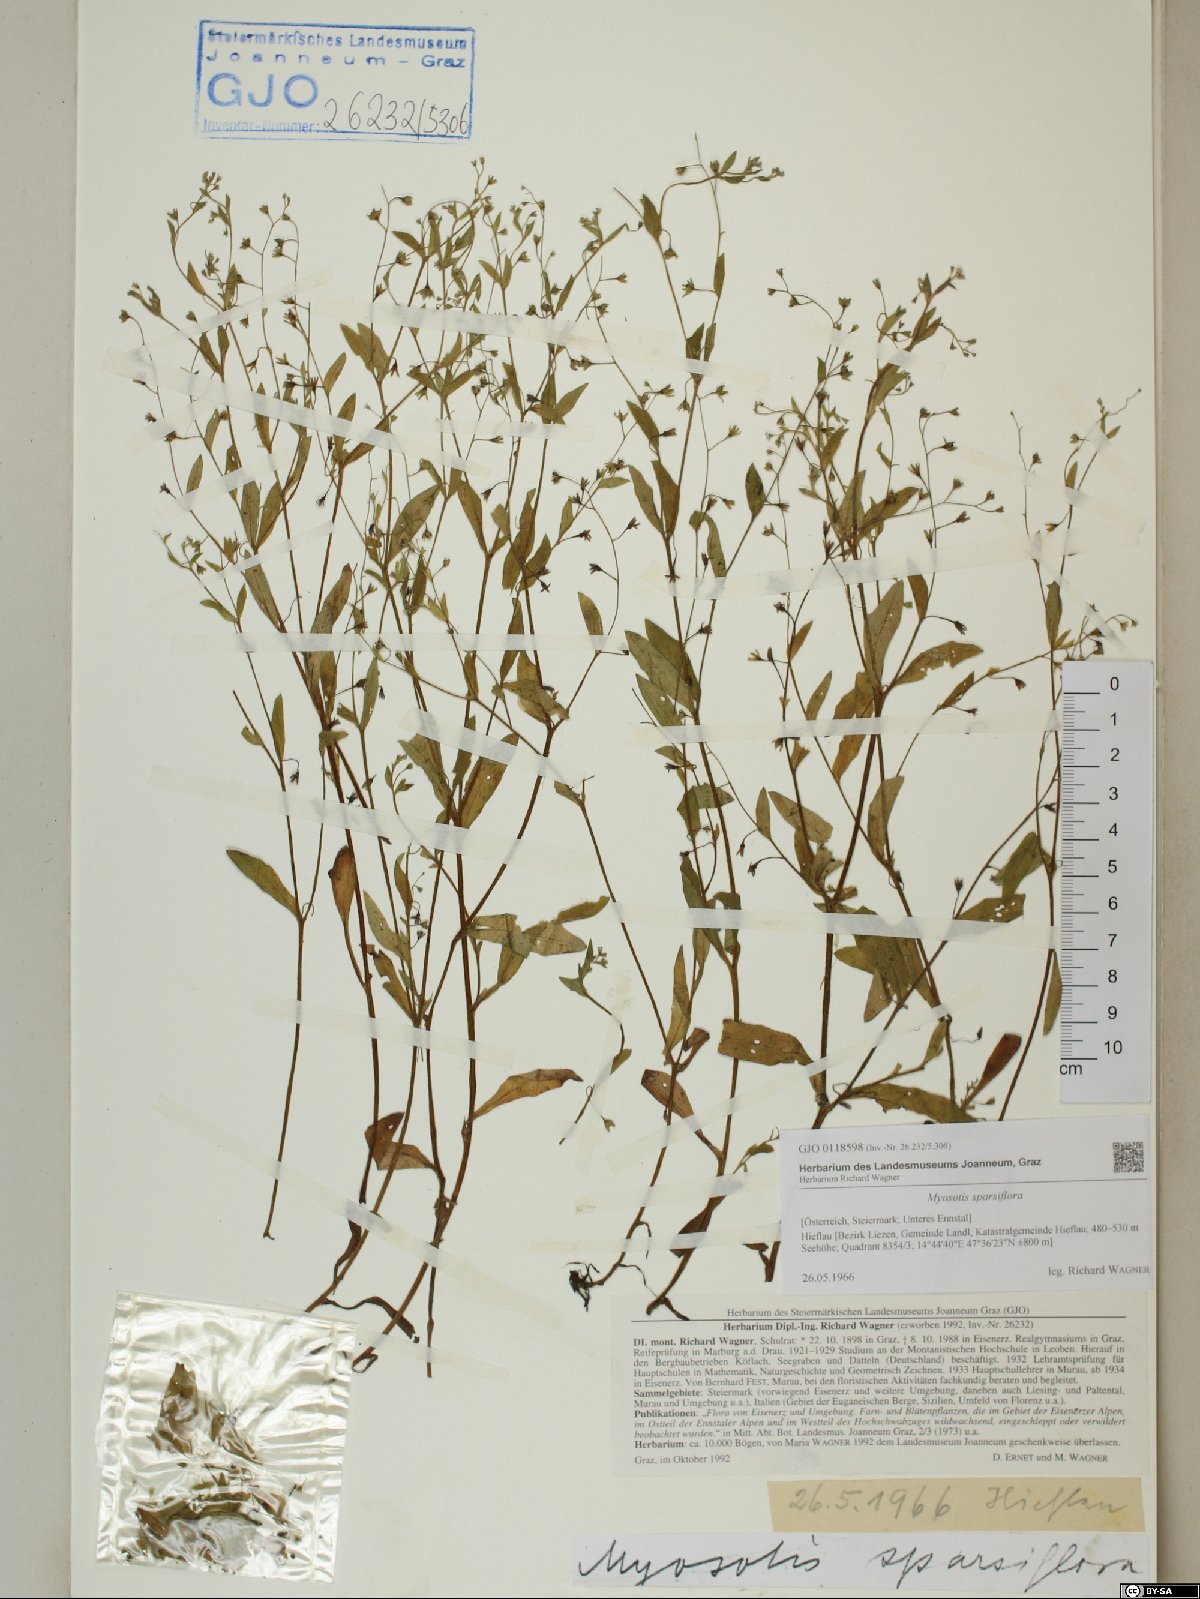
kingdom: Plantae
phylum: Tracheophyta
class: Magnoliopsida
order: Boraginales
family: Boraginaceae
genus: Myosotis
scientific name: Myosotis sparsiflora
